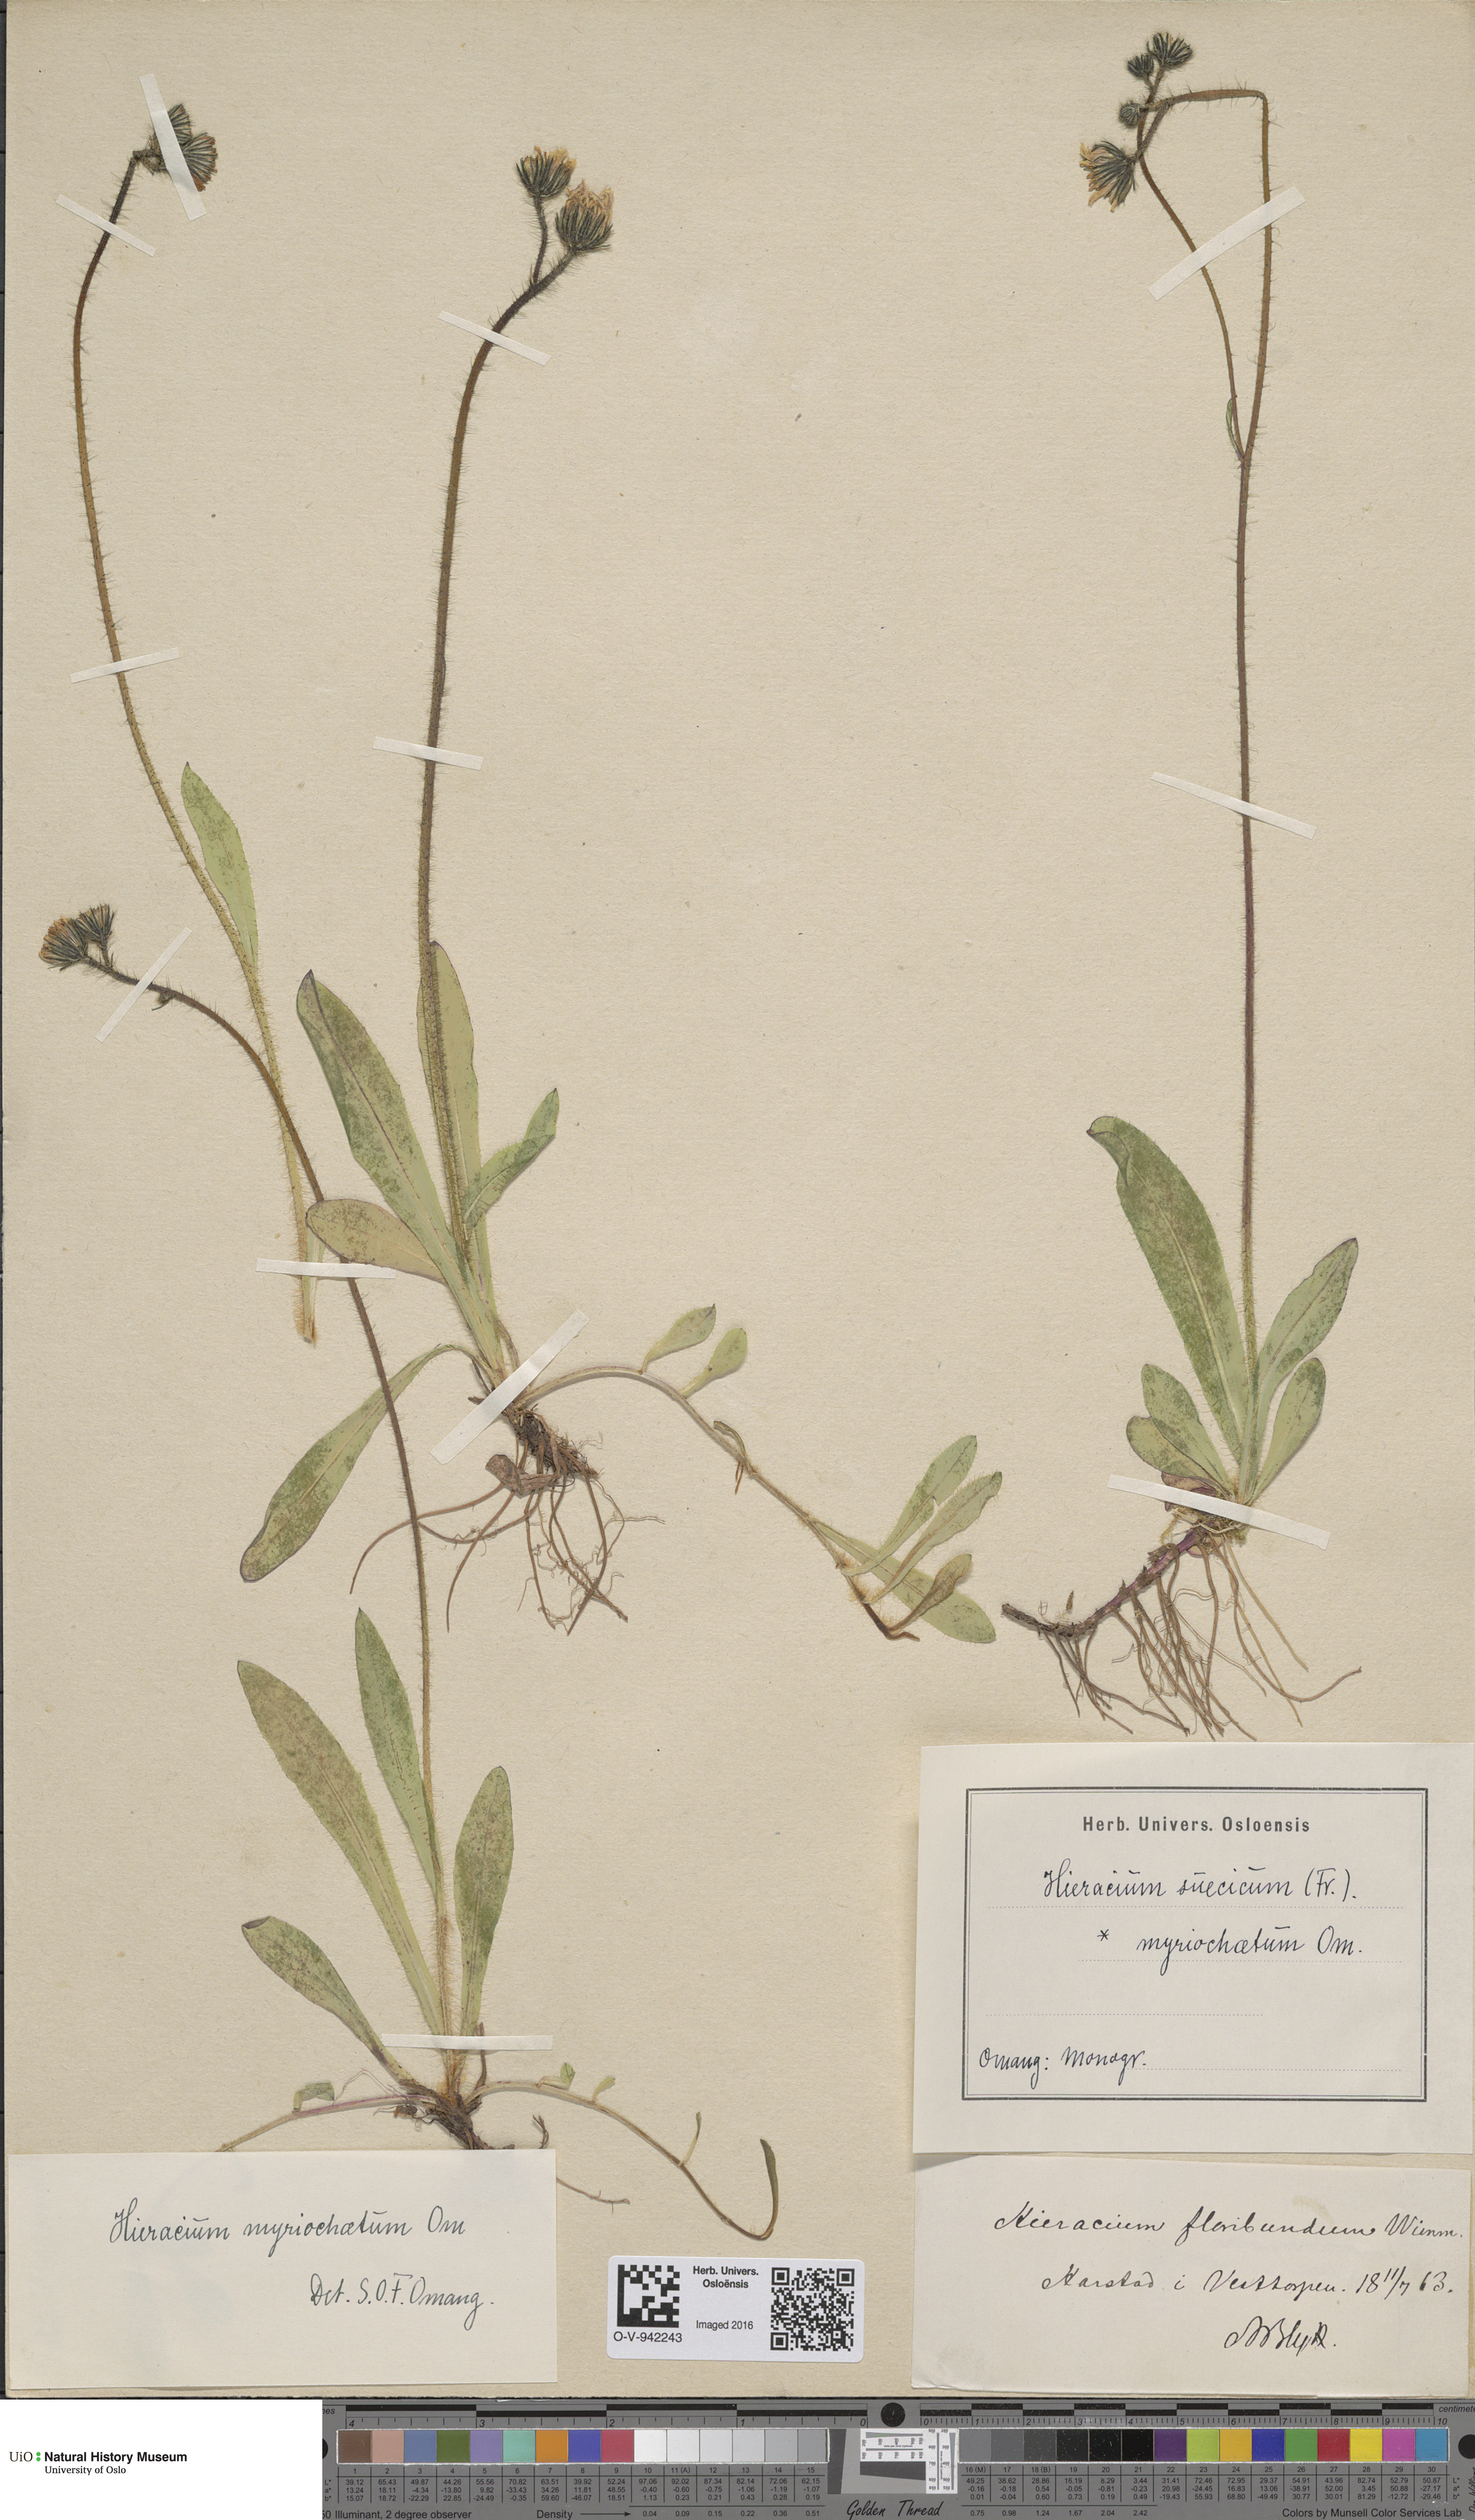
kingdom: Plantae
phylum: Tracheophyta
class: Magnoliopsida
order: Asterales
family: Asteraceae
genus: Pilosella
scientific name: Pilosella dubia
